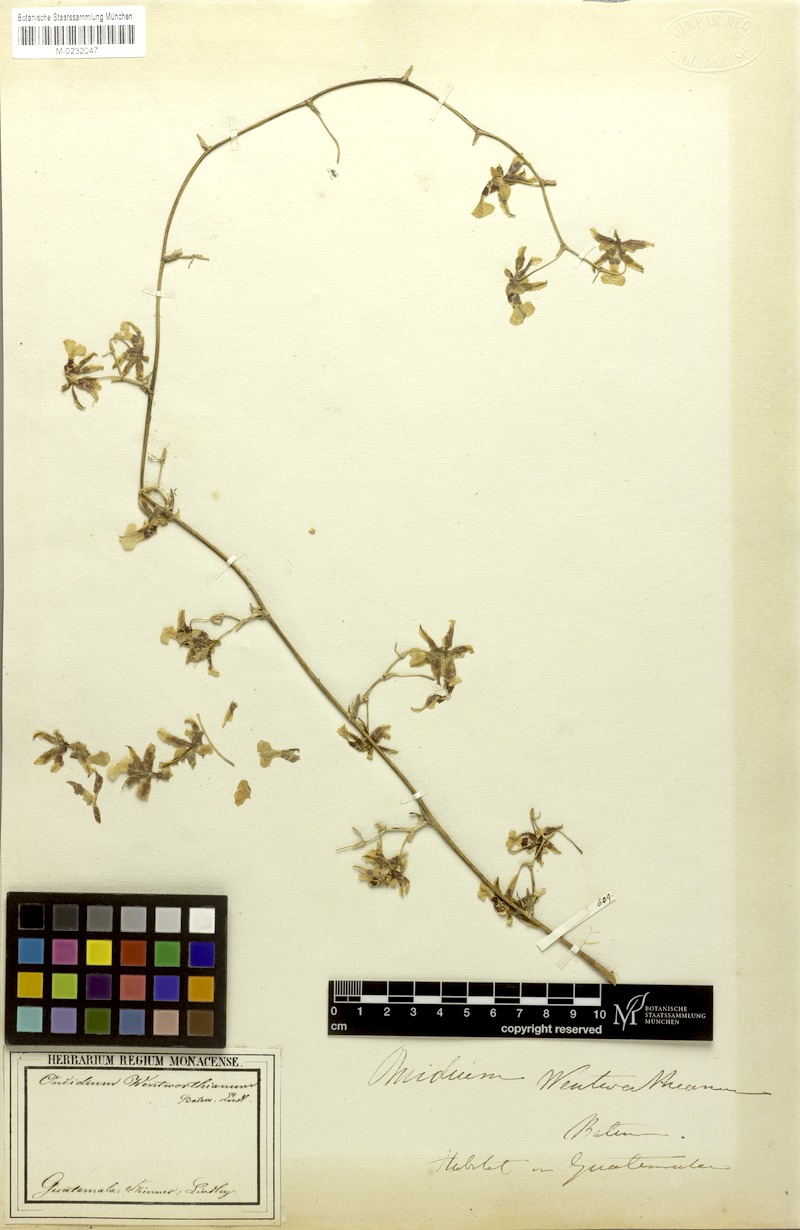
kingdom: Plantae
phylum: Tracheophyta
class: Liliopsida
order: Asparagales
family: Orchidaceae
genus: Oncidium
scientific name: Oncidium wentworthianum
